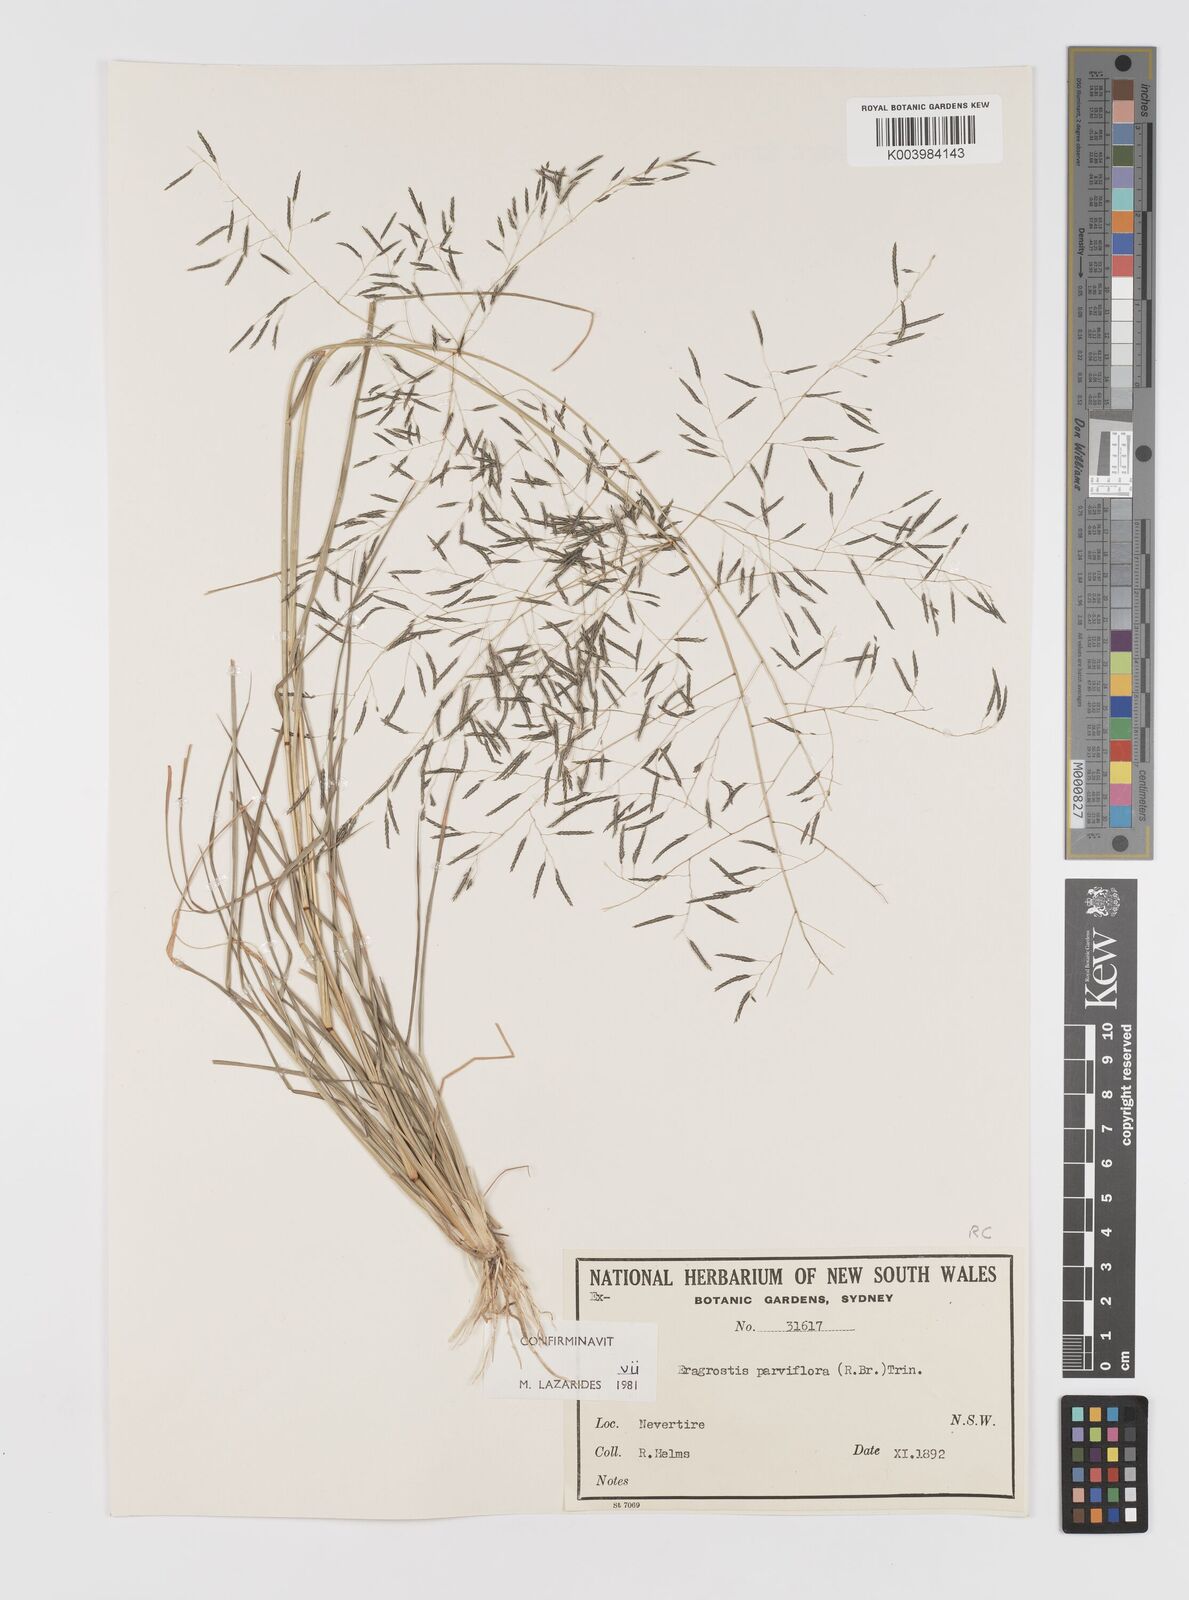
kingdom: Plantae
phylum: Tracheophyta
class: Liliopsida
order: Poales
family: Poaceae
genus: Eragrostis
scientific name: Eragrostis parviflora
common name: Weeping love-grass
